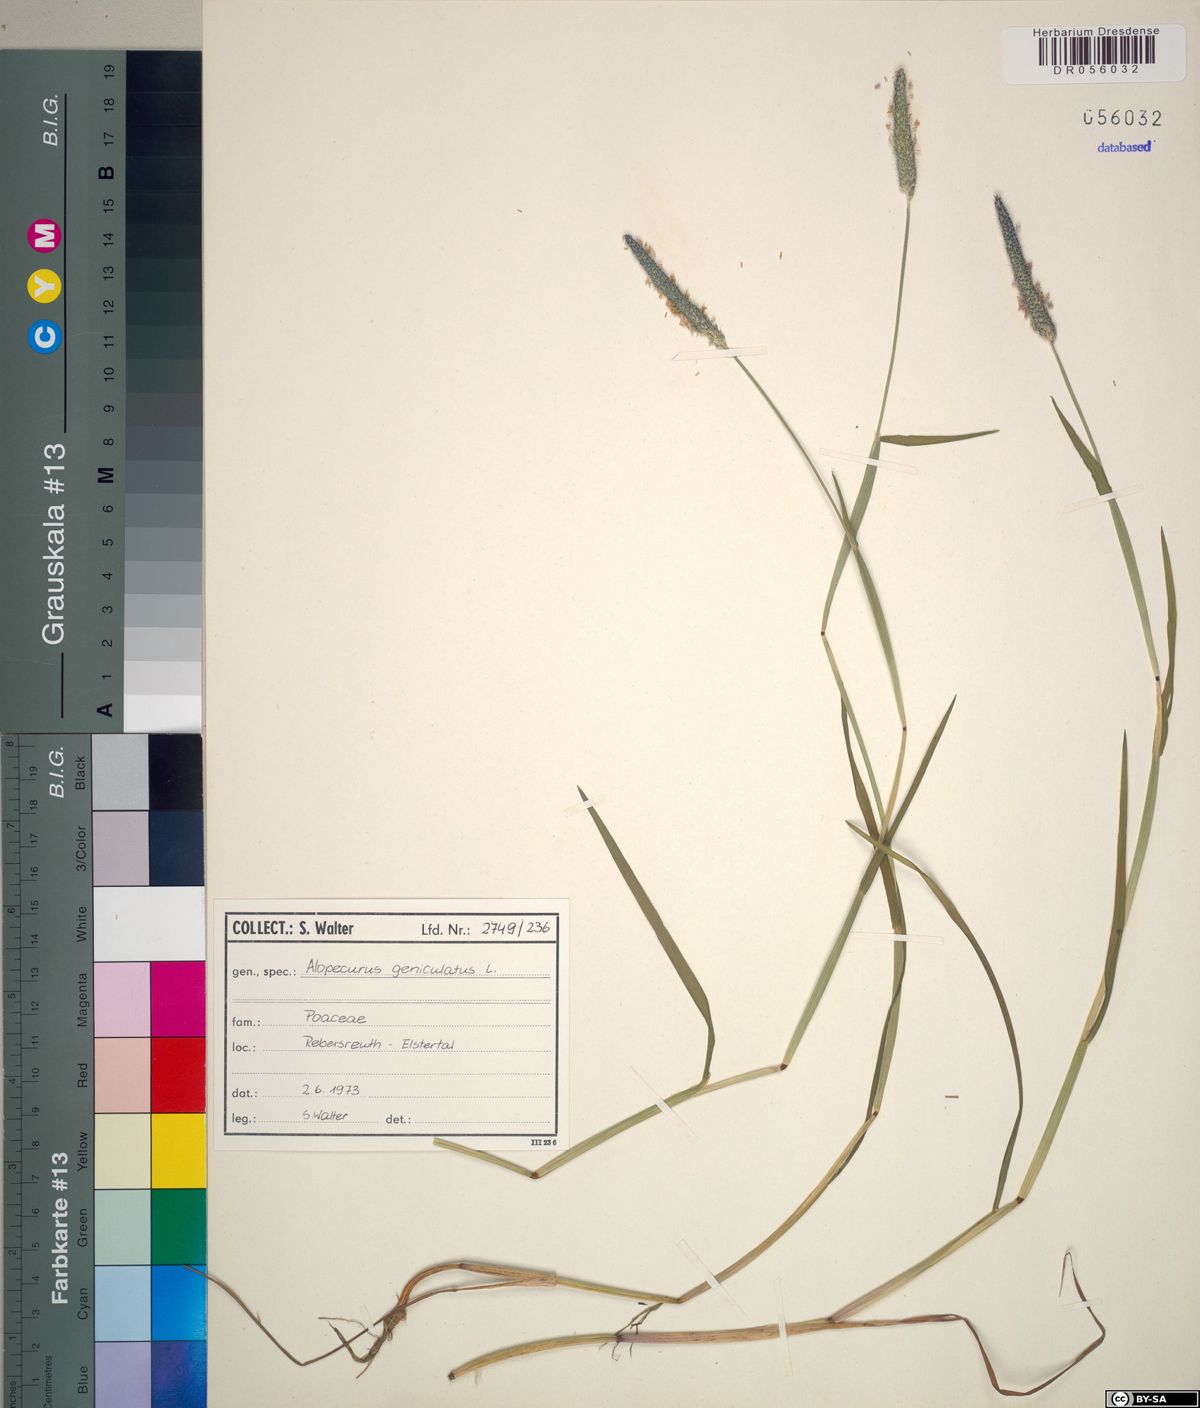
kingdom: Plantae
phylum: Tracheophyta
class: Liliopsida
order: Poales
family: Poaceae
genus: Alopecurus
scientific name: Alopecurus geniculatus
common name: Water foxtail
